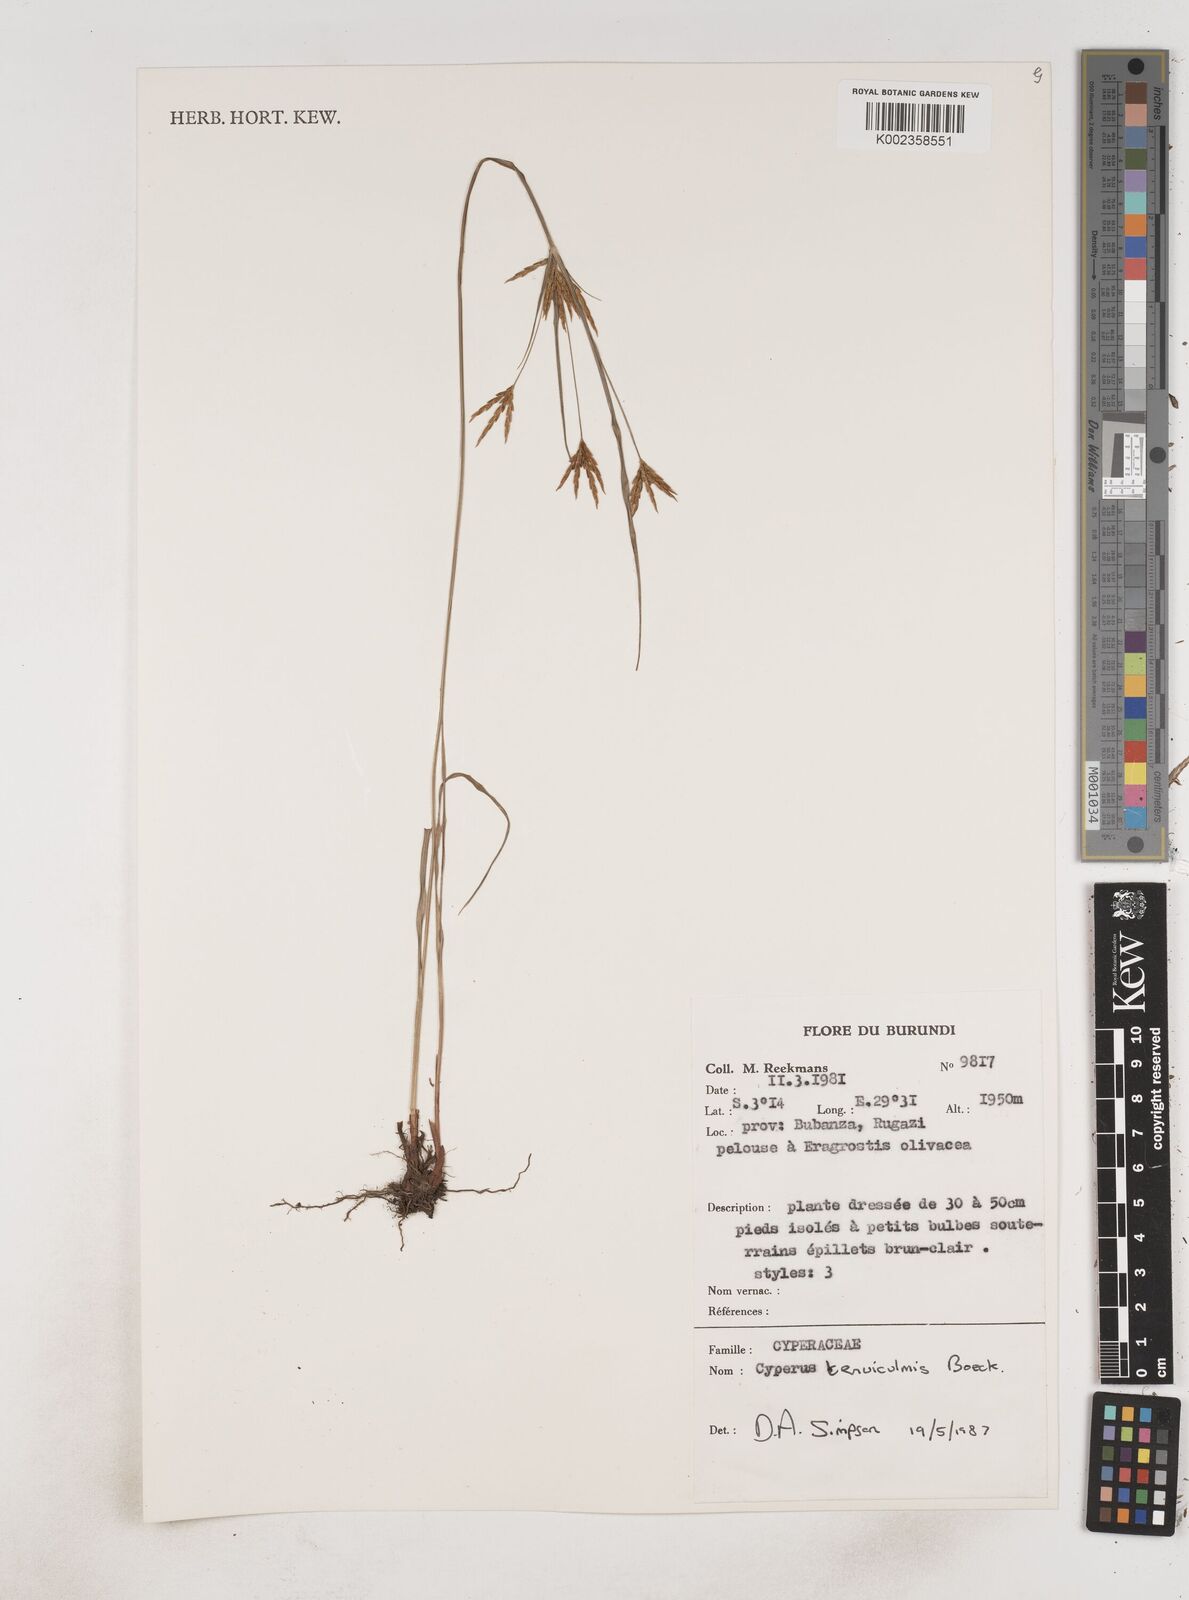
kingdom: Plantae
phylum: Tracheophyta
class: Liliopsida
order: Poales
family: Cyperaceae
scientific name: Cyperaceae
